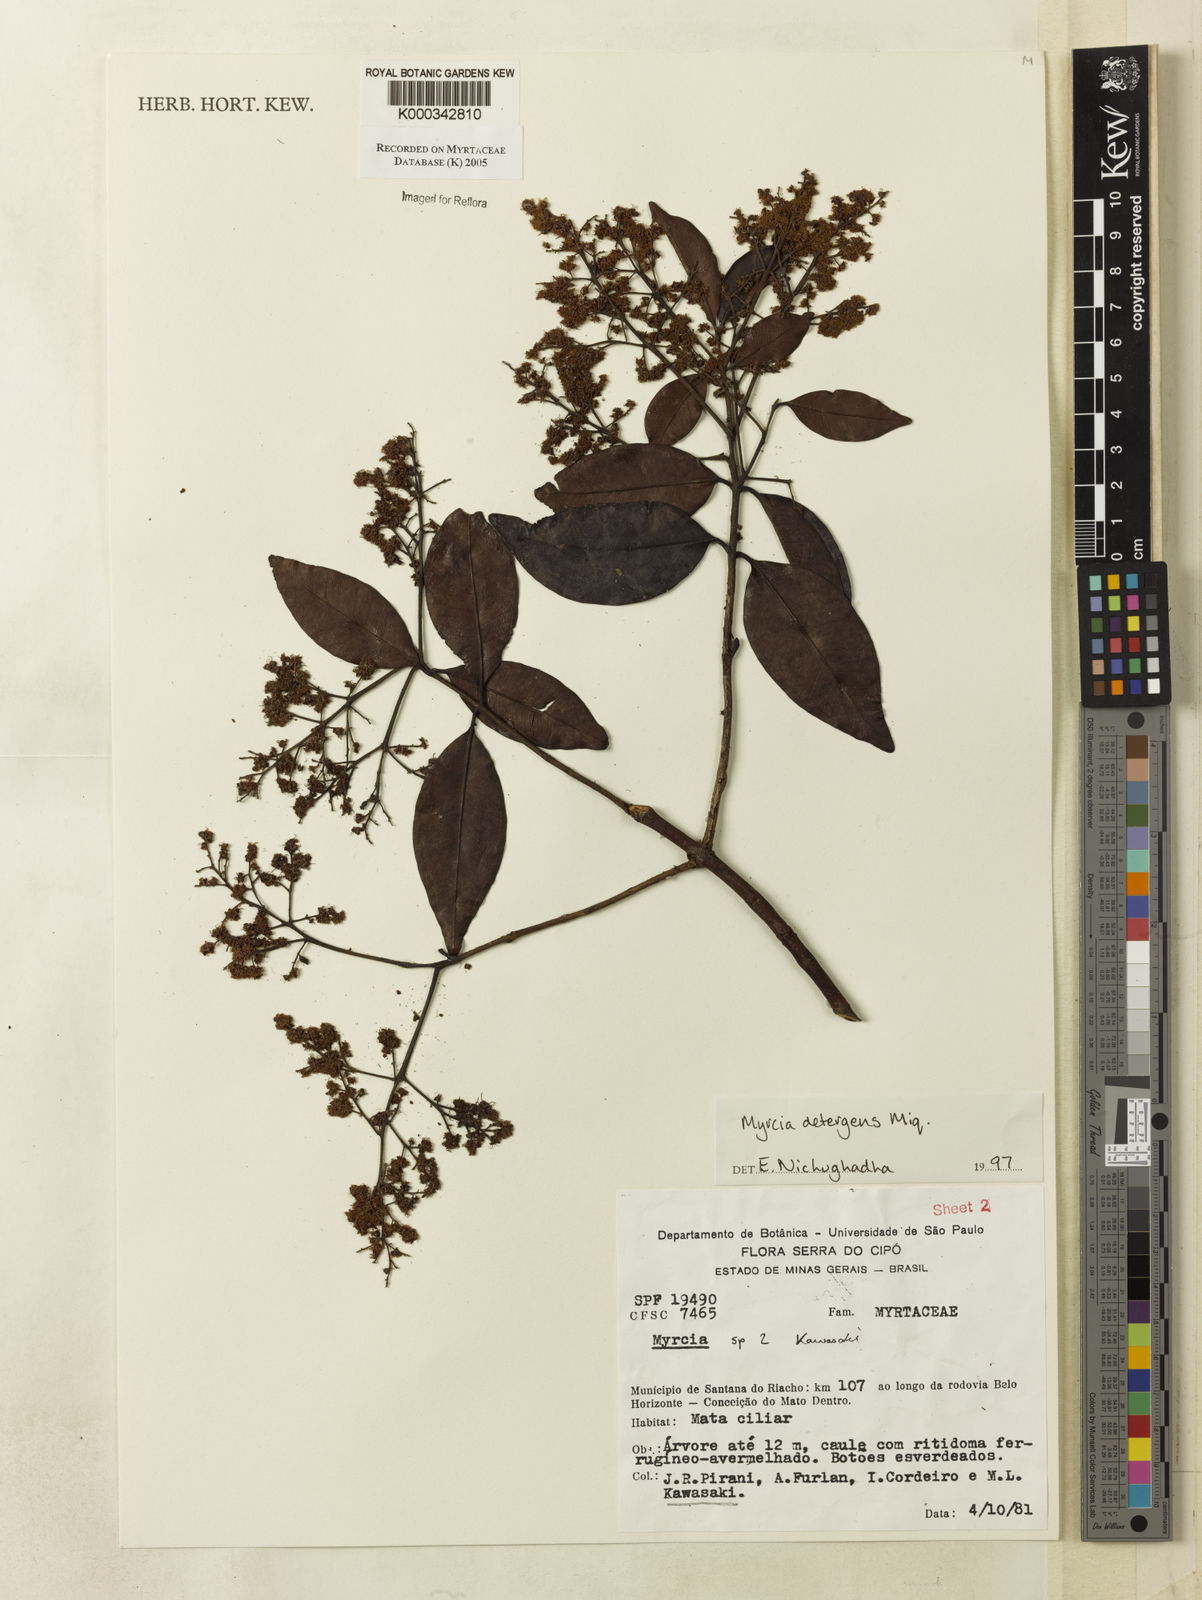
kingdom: Plantae
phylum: Tracheophyta
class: Magnoliopsida
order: Myrtales
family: Myrtaceae
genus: Myrcia
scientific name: Myrcia amazonica
